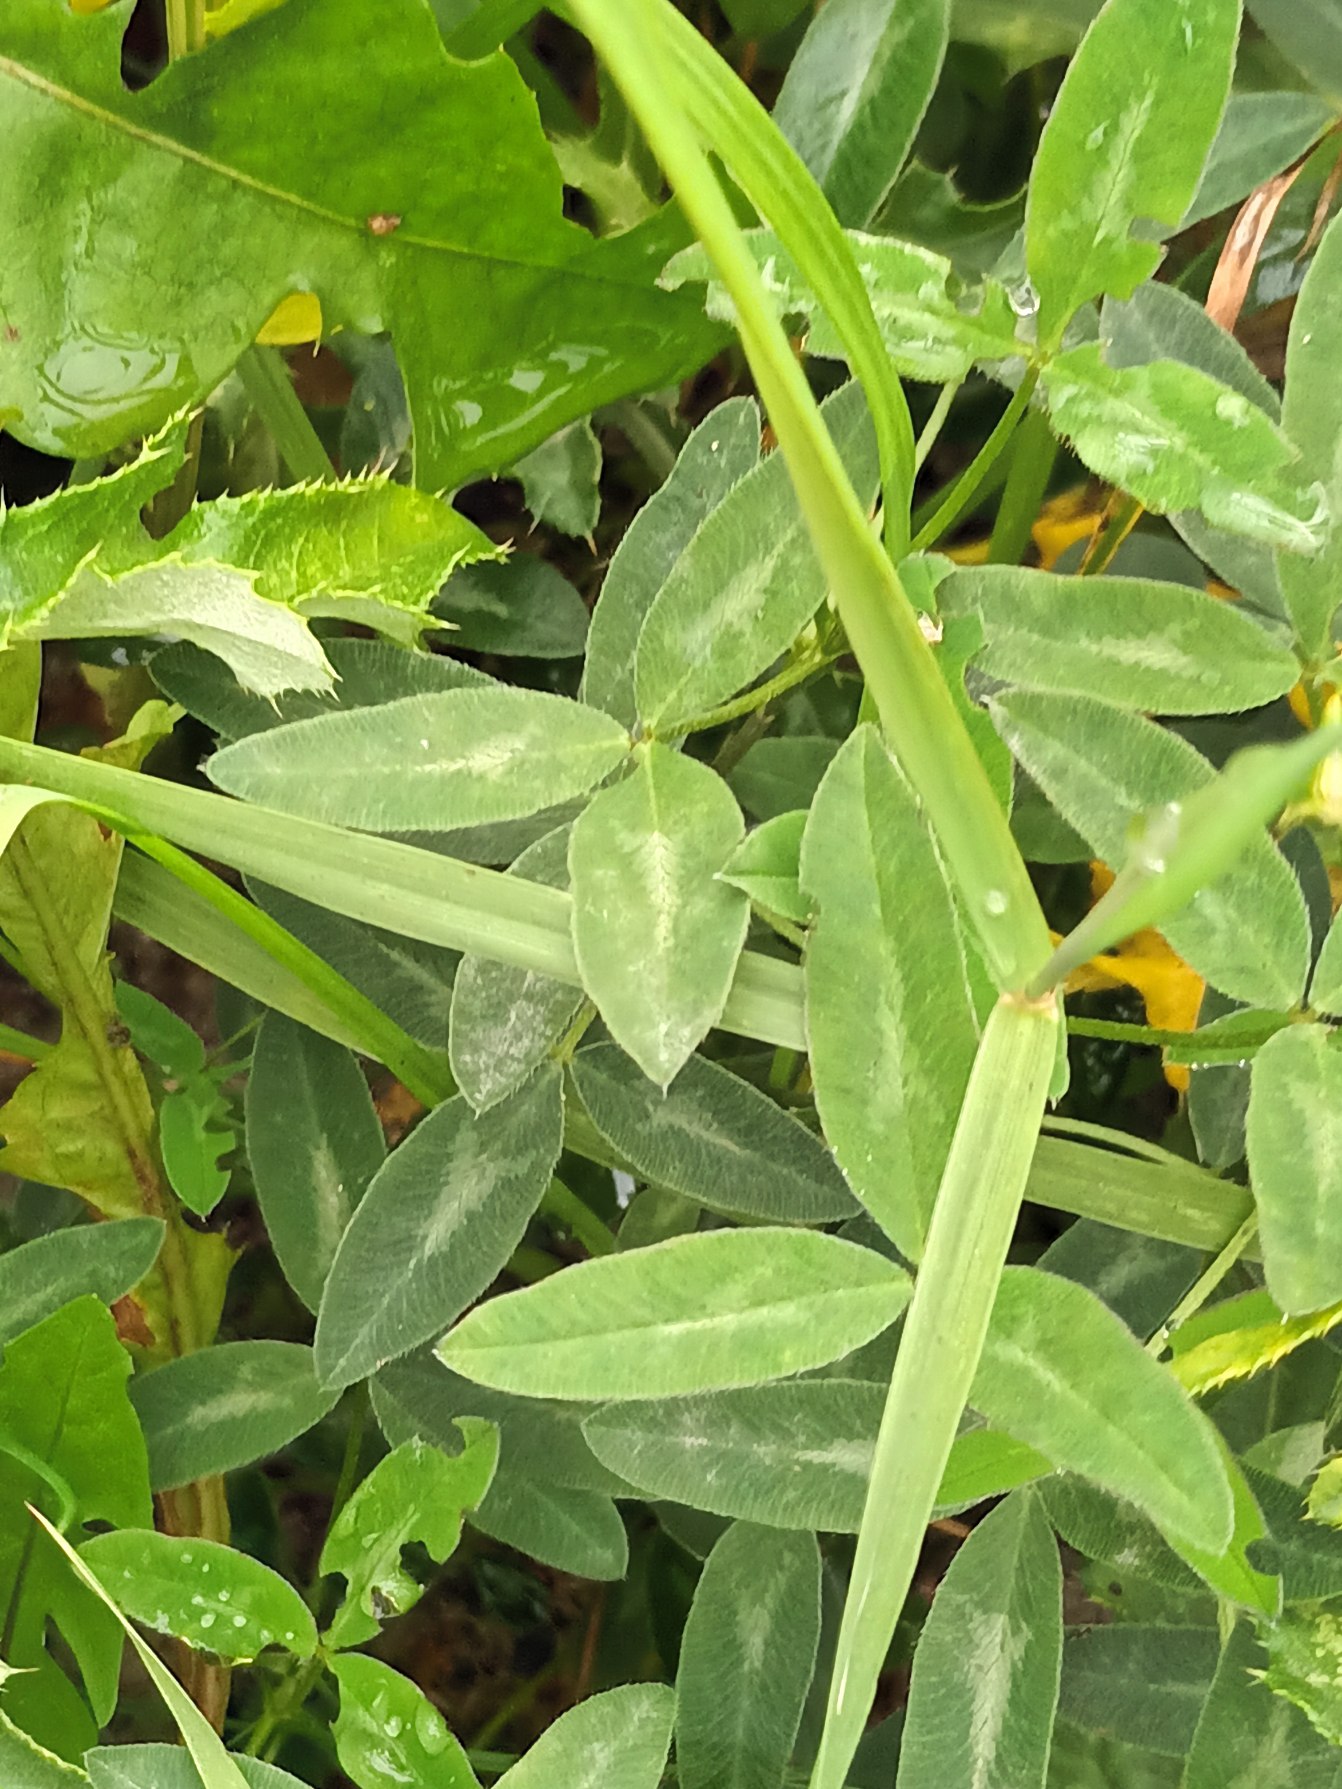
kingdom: Plantae
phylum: Tracheophyta
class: Magnoliopsida
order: Fabales
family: Fabaceae
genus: Trifolium
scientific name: Trifolium medium
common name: Bugtet kløver
